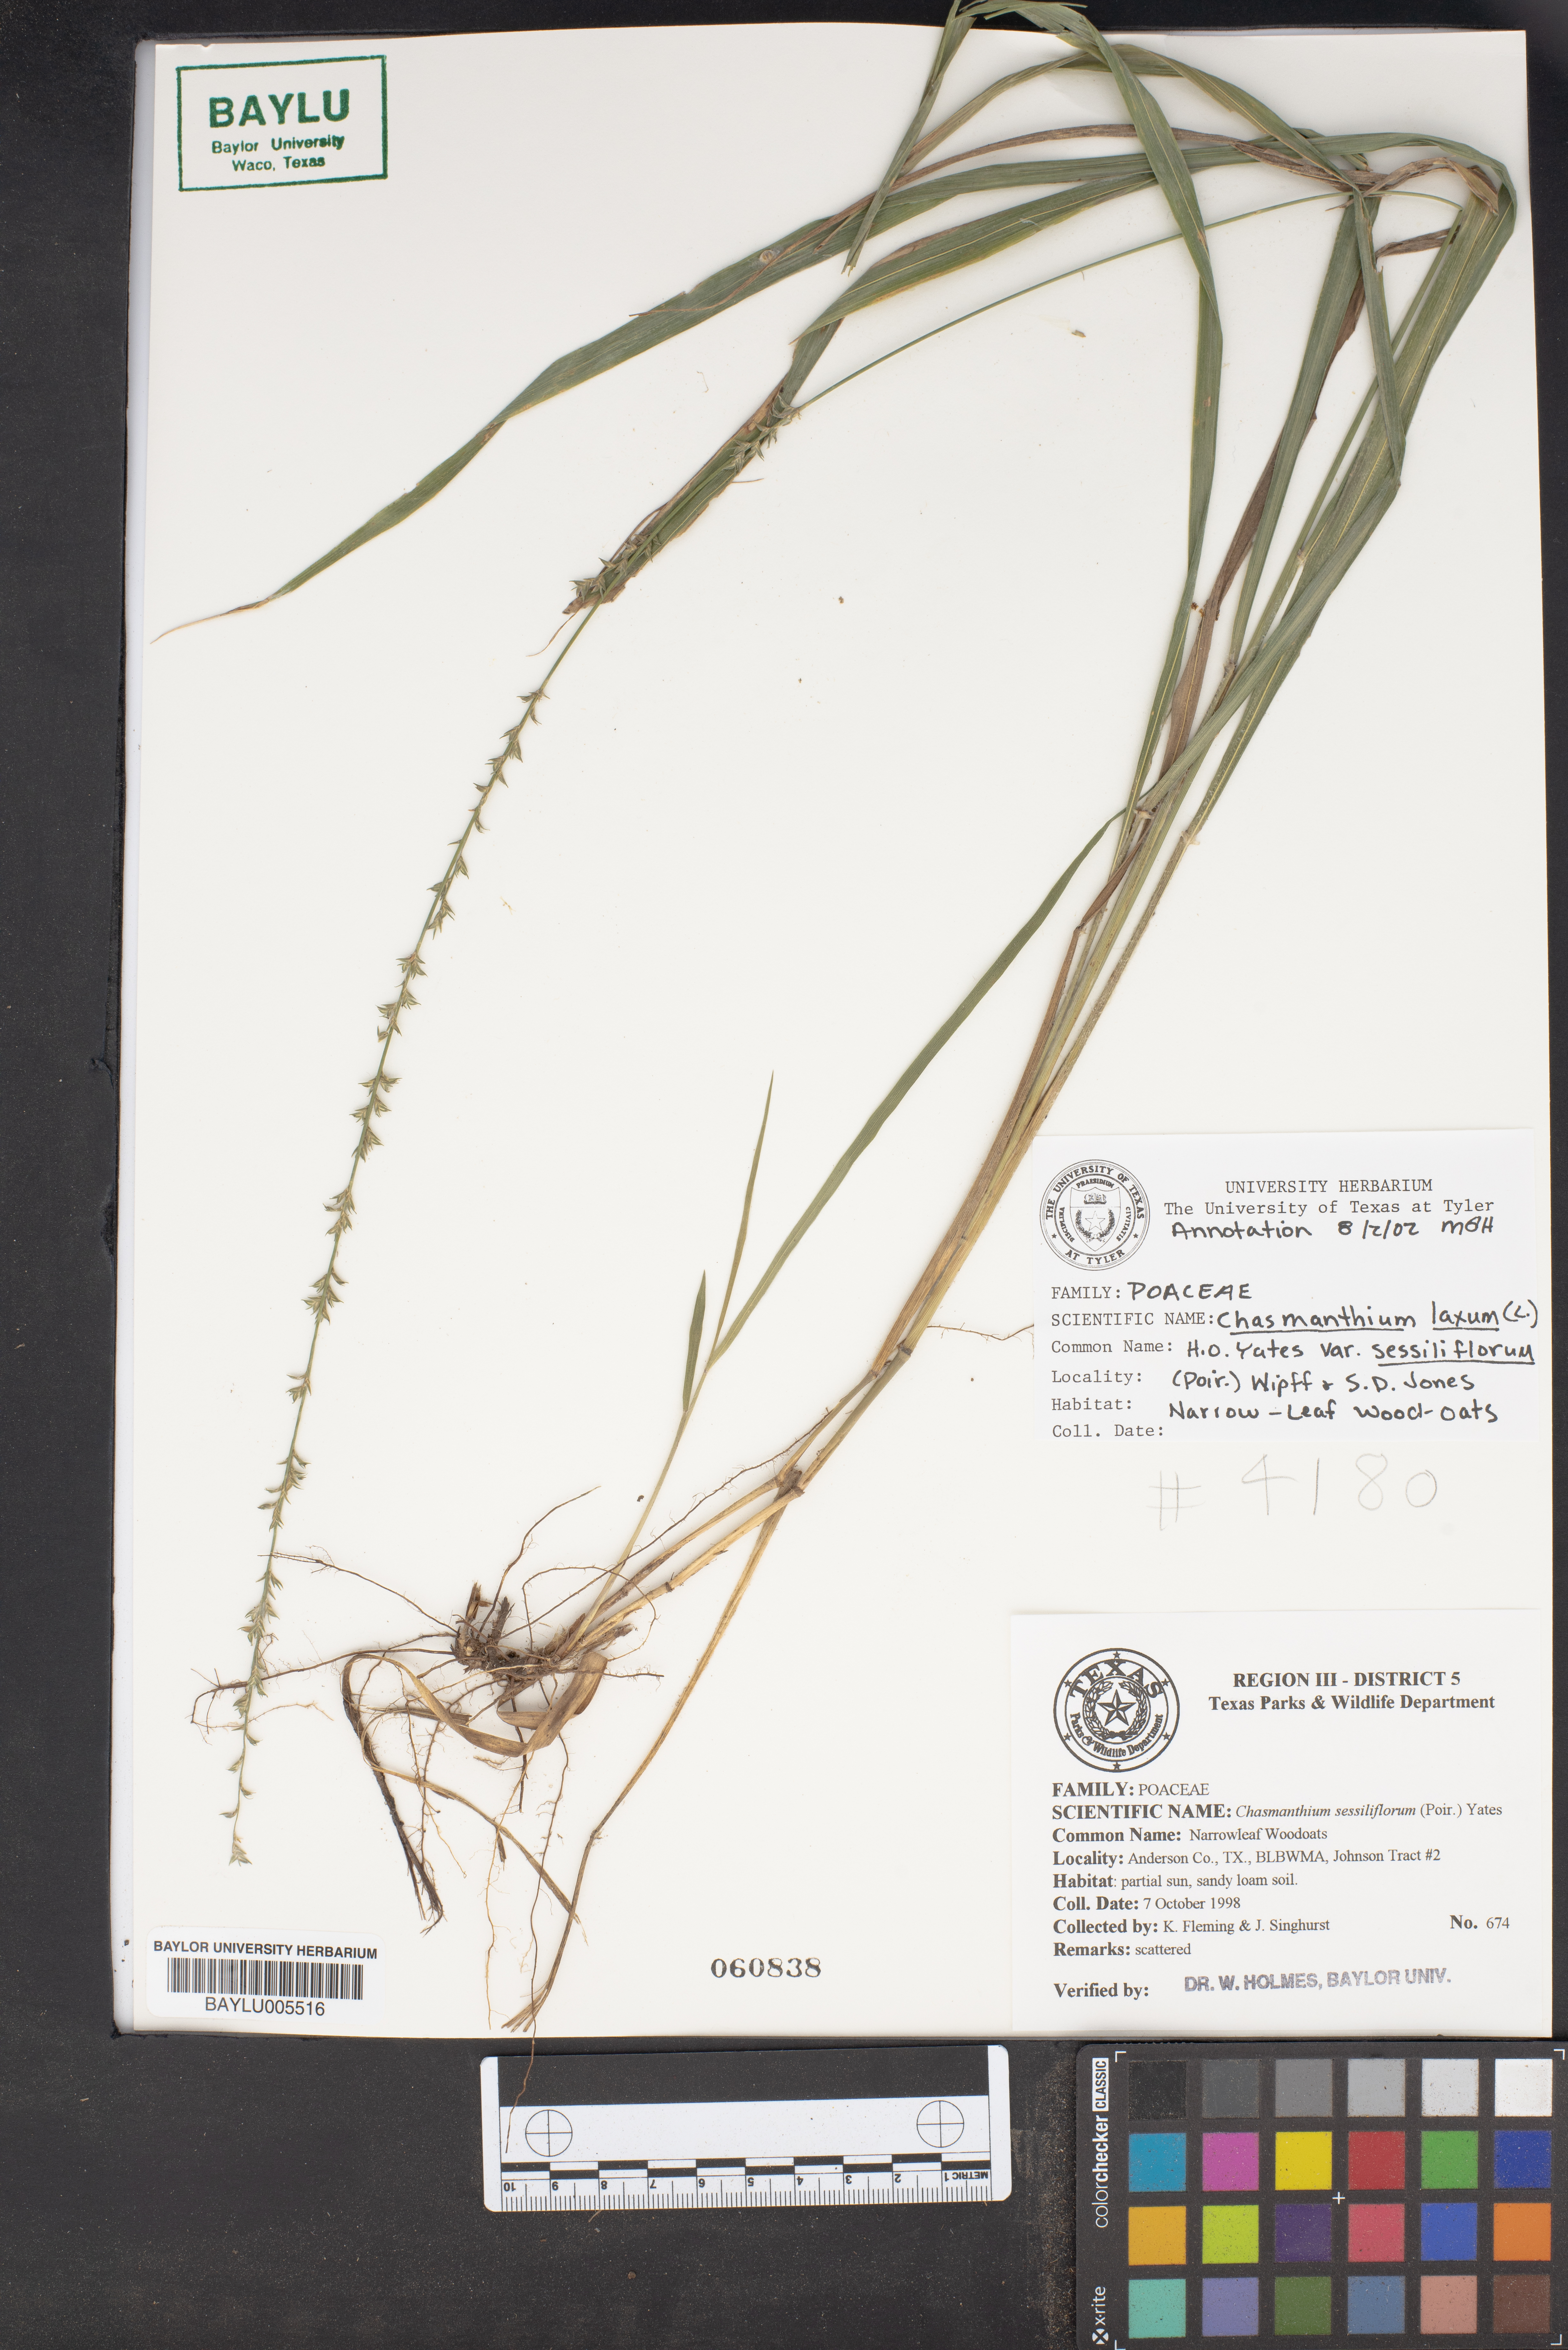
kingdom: Plantae
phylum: Tracheophyta
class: Liliopsida
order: Poales
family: Poaceae
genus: Chasmanthium
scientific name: Chasmanthium laxum
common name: Slender chasmanthium
